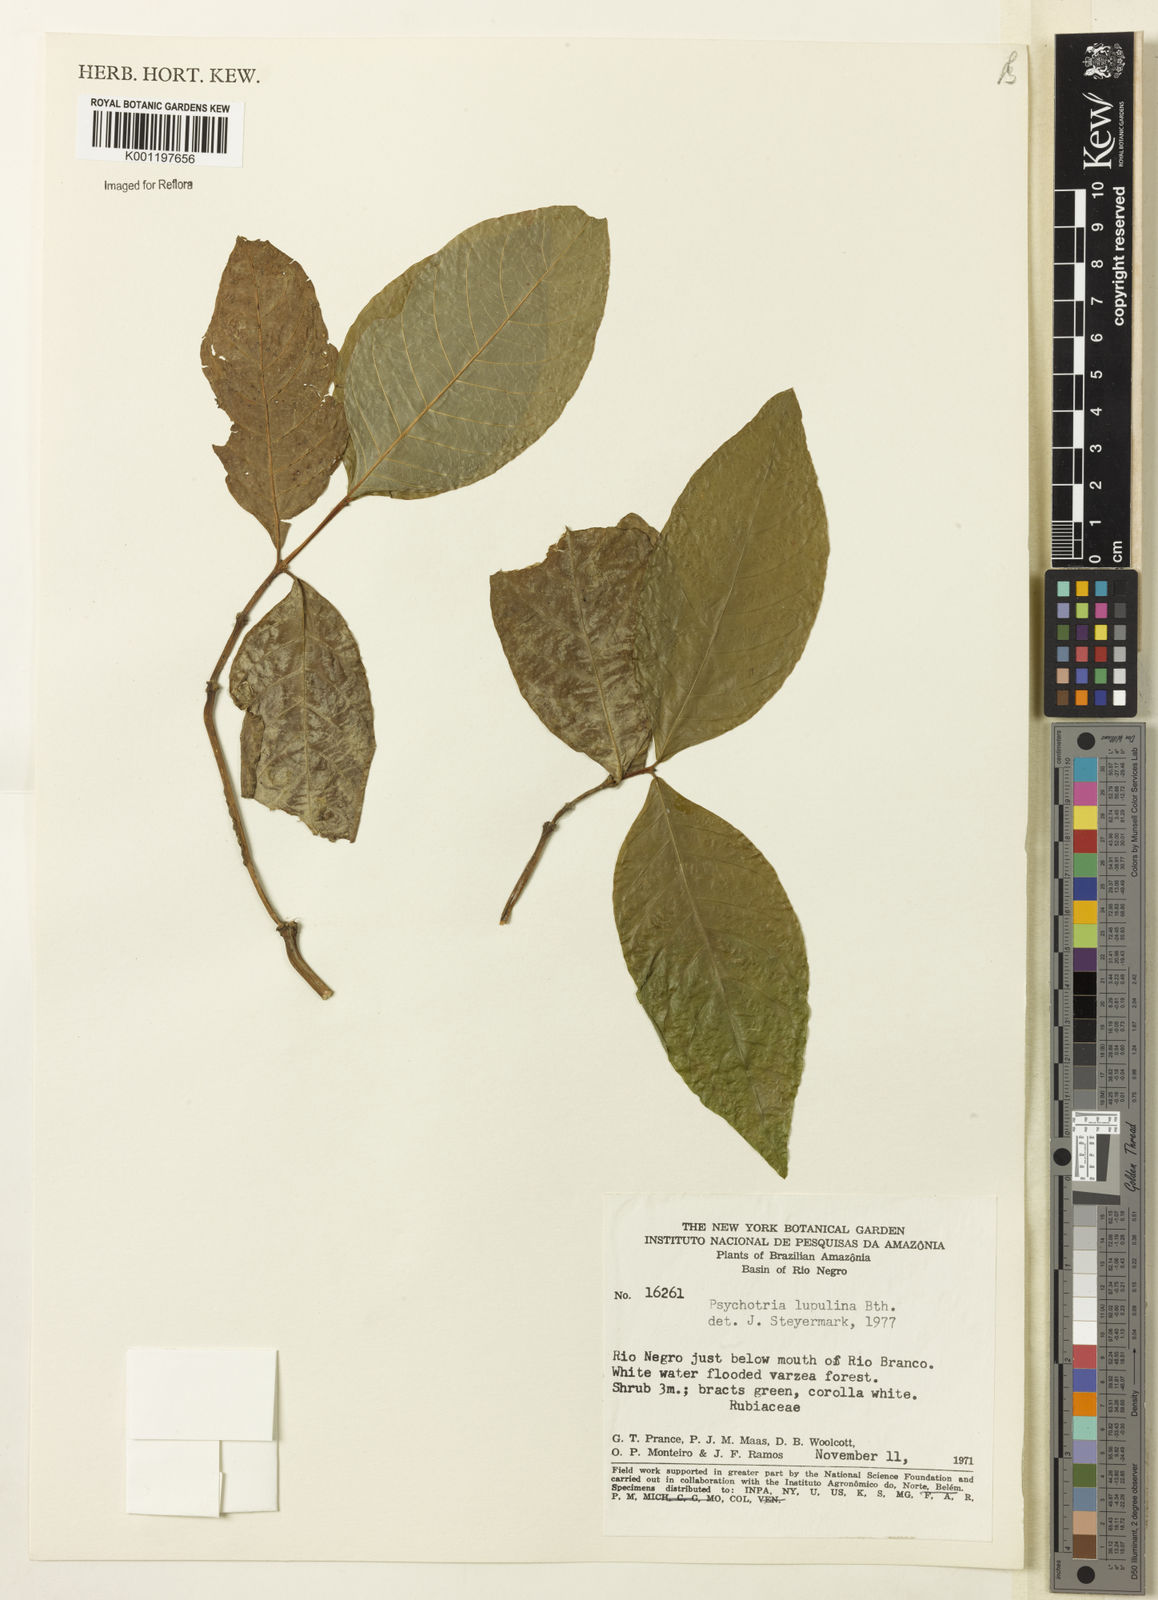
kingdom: Plantae
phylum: Tracheophyta
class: Magnoliopsida
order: Gentianales
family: Rubiaceae
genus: Palicourea
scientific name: Palicourea justiciifolia
